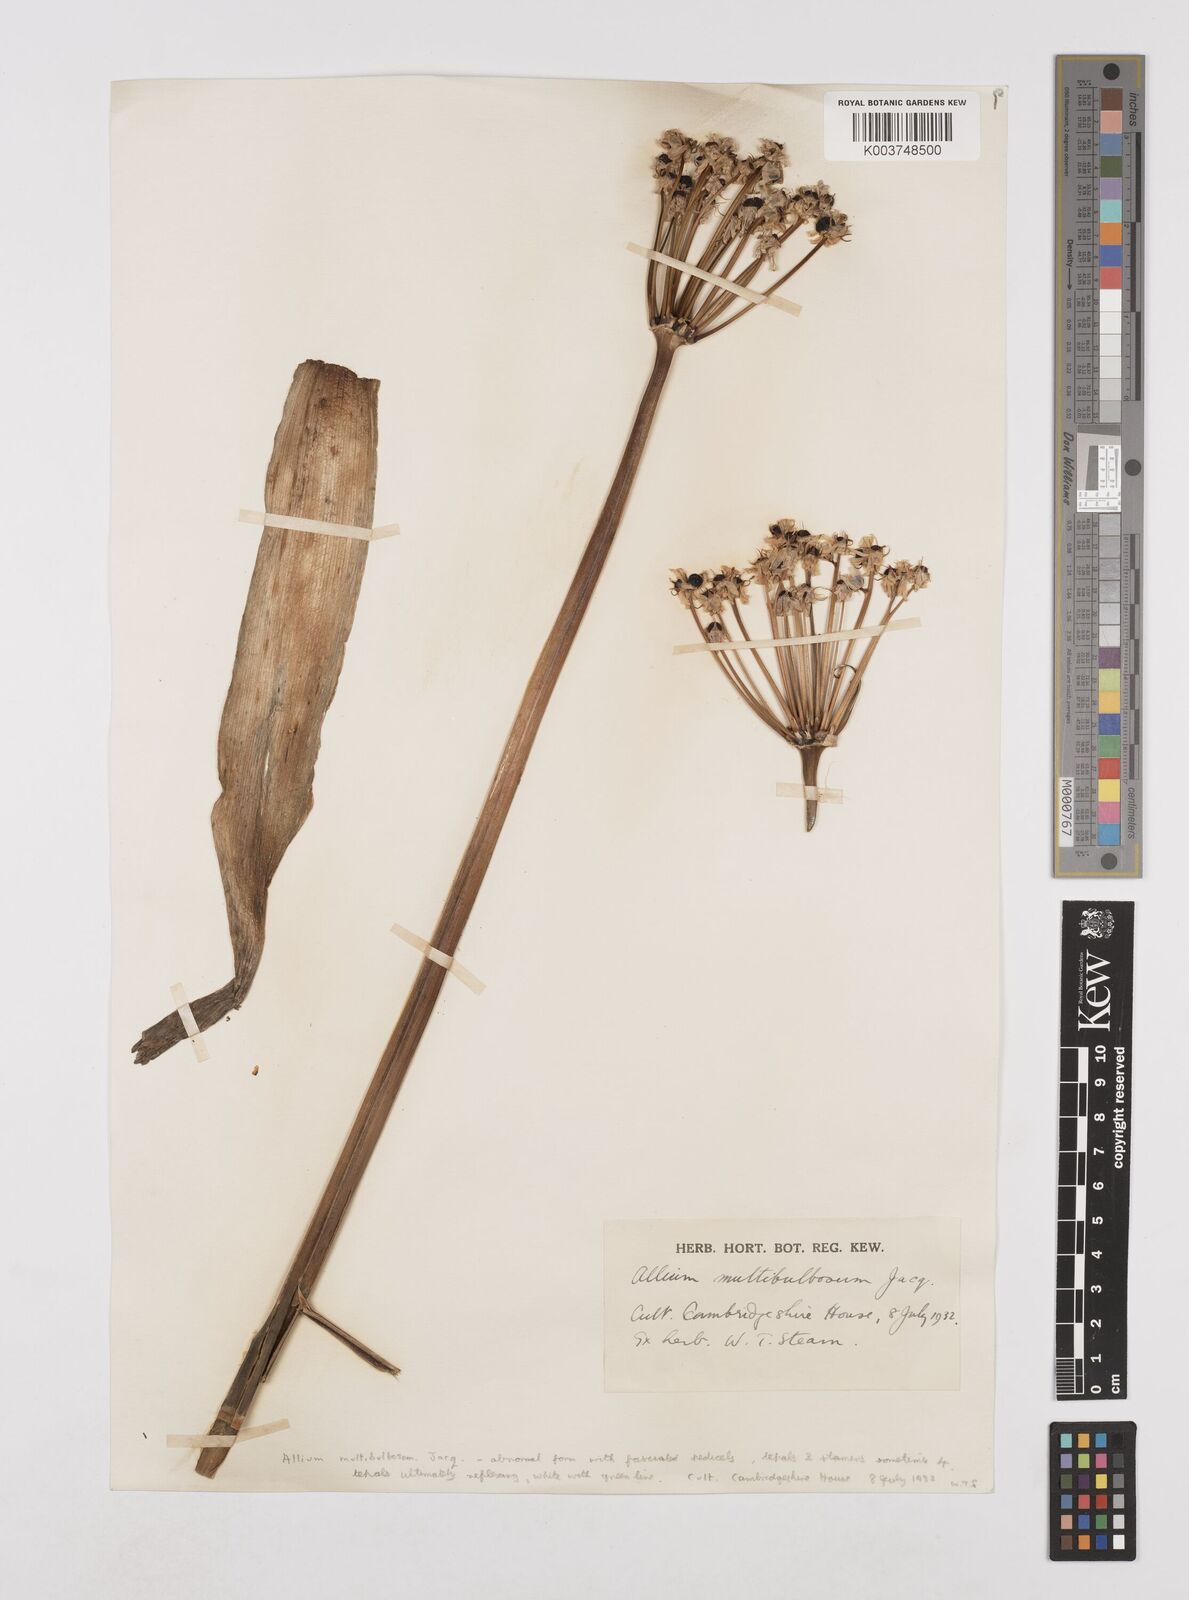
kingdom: Plantae
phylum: Tracheophyta
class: Liliopsida
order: Asparagales
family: Amaryllidaceae
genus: Allium
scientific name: Allium multibulbosum
